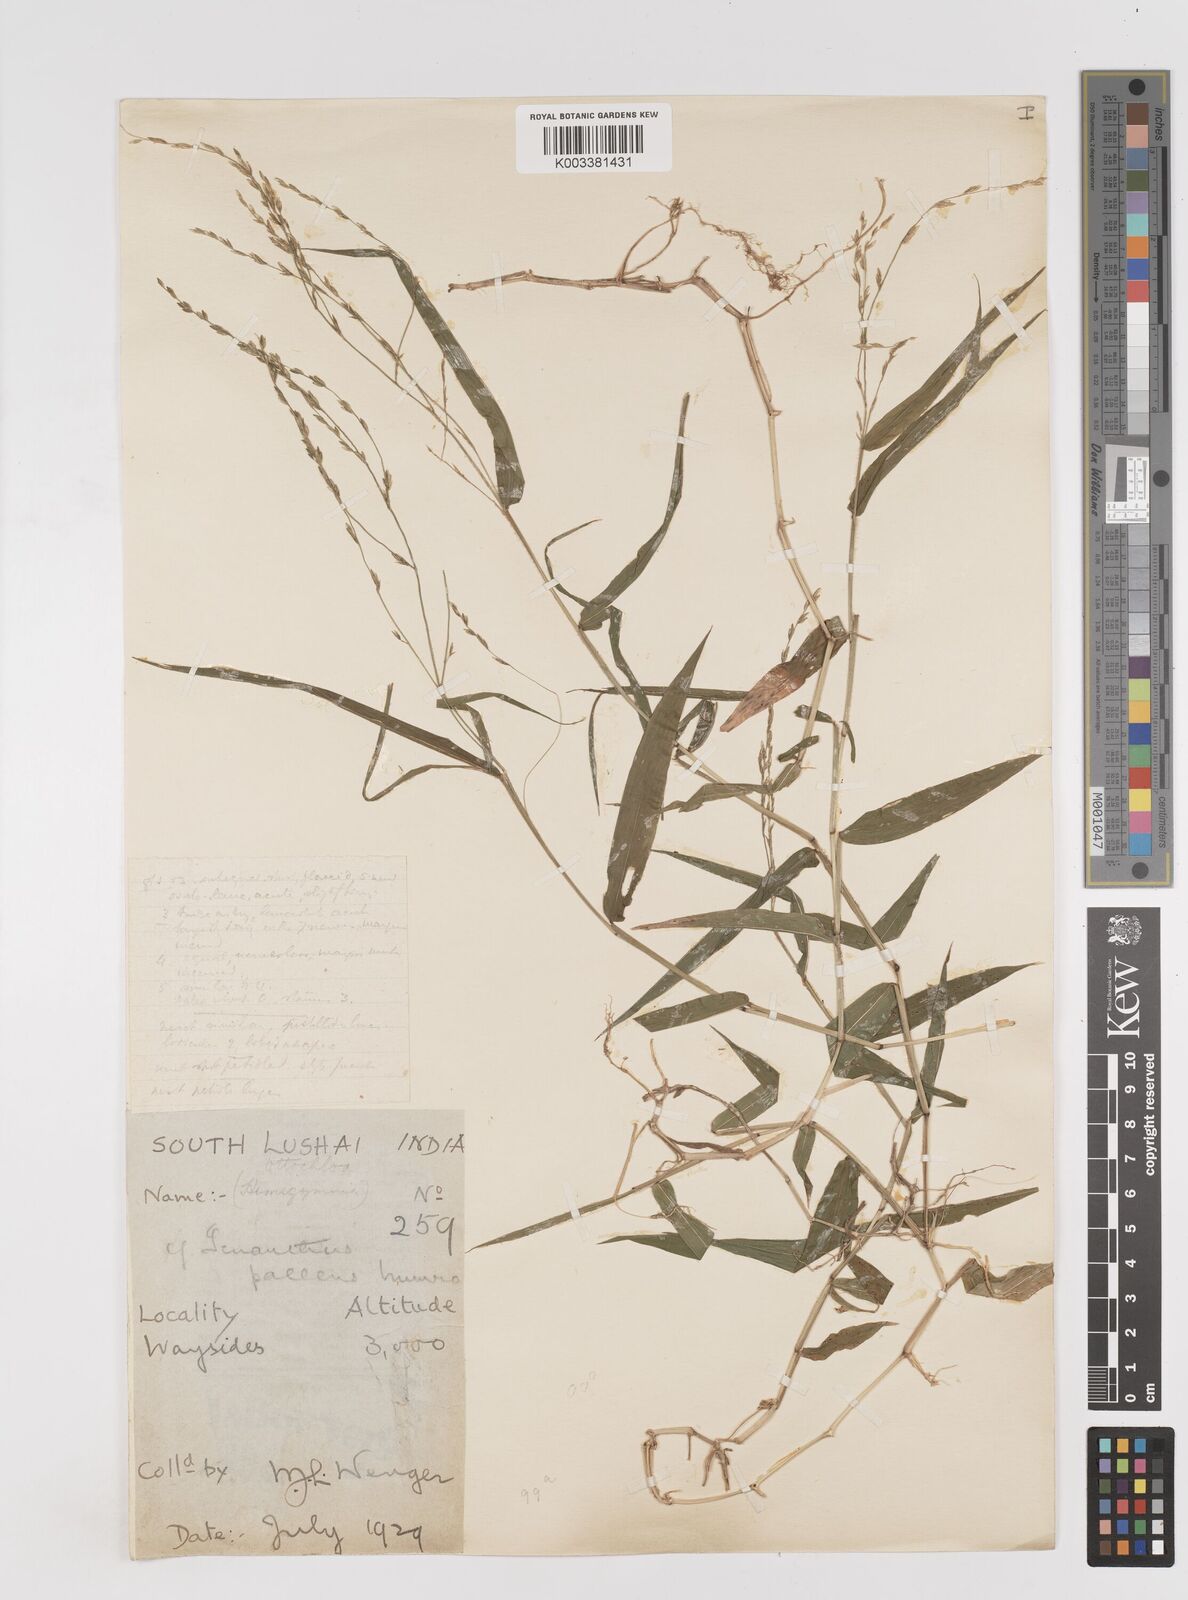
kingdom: Plantae
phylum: Tracheophyta
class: Liliopsida
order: Poales
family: Poaceae
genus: Ottochloa
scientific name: Ottochloa nodosa
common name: Slender-panic grass
